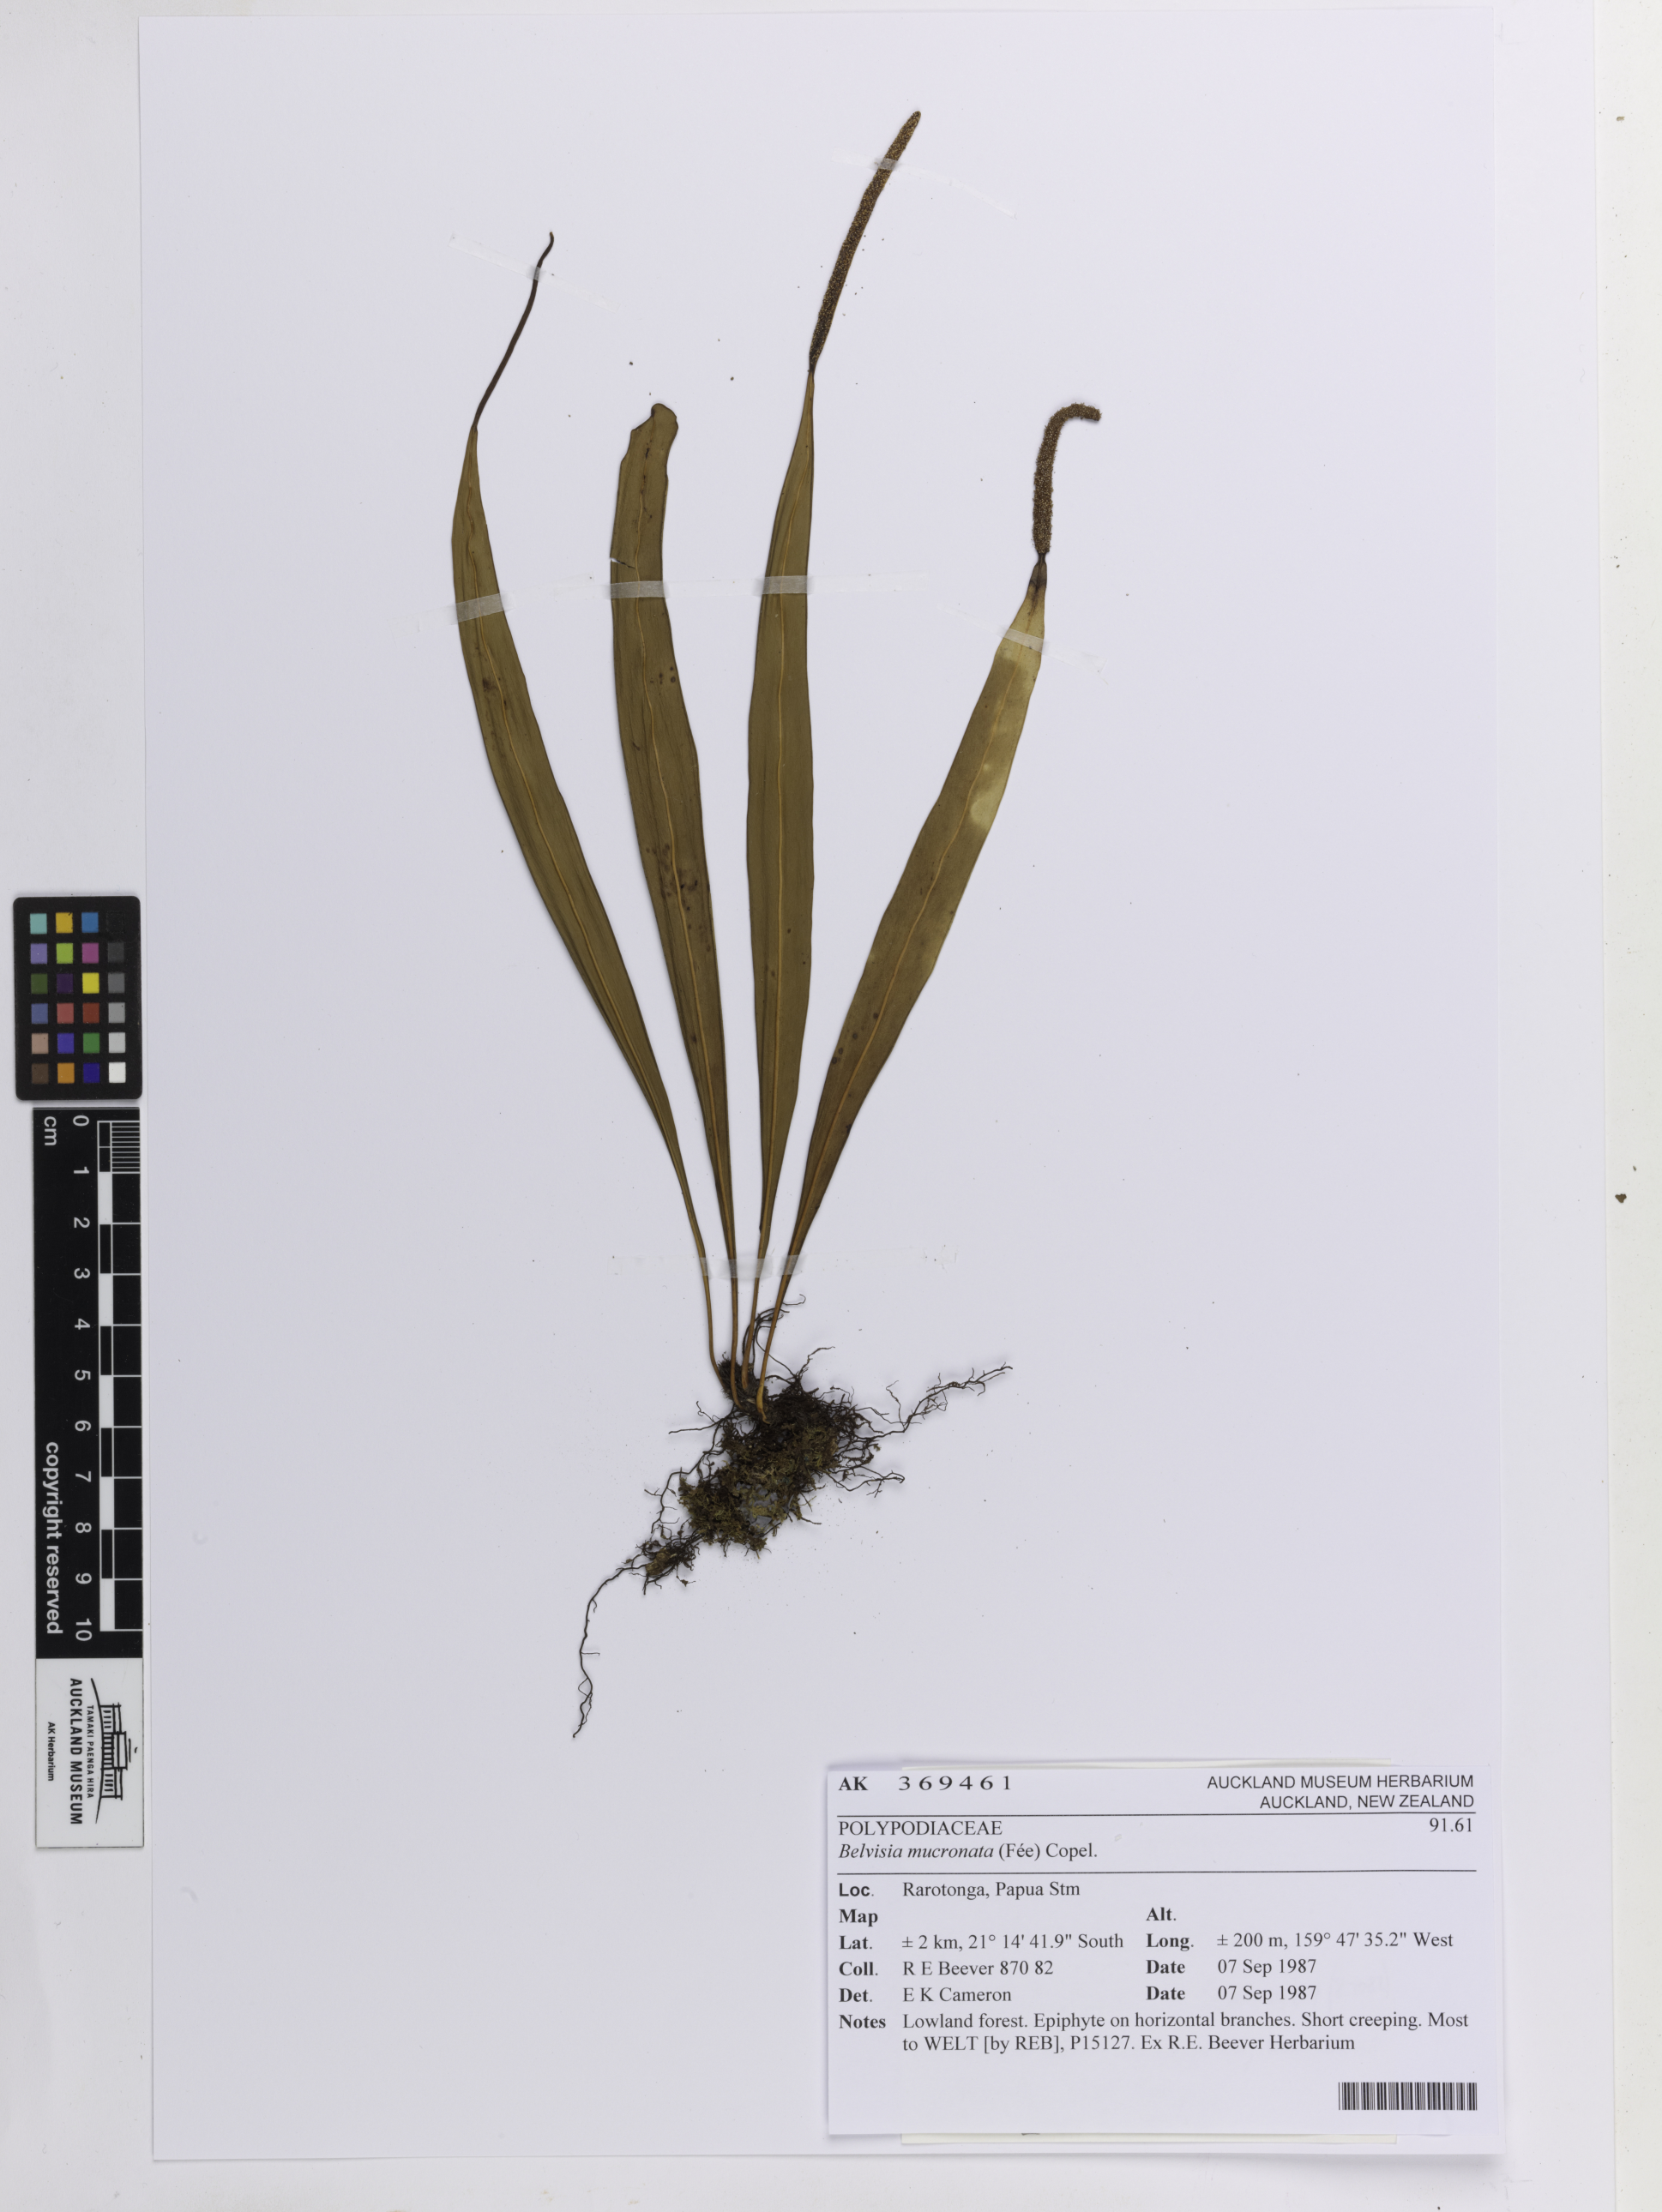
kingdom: Plantae
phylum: Tracheophyta
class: Polypodiopsida
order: Polypodiales
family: Polypodiaceae
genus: Lepisorus
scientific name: Lepisorus mucronatus
